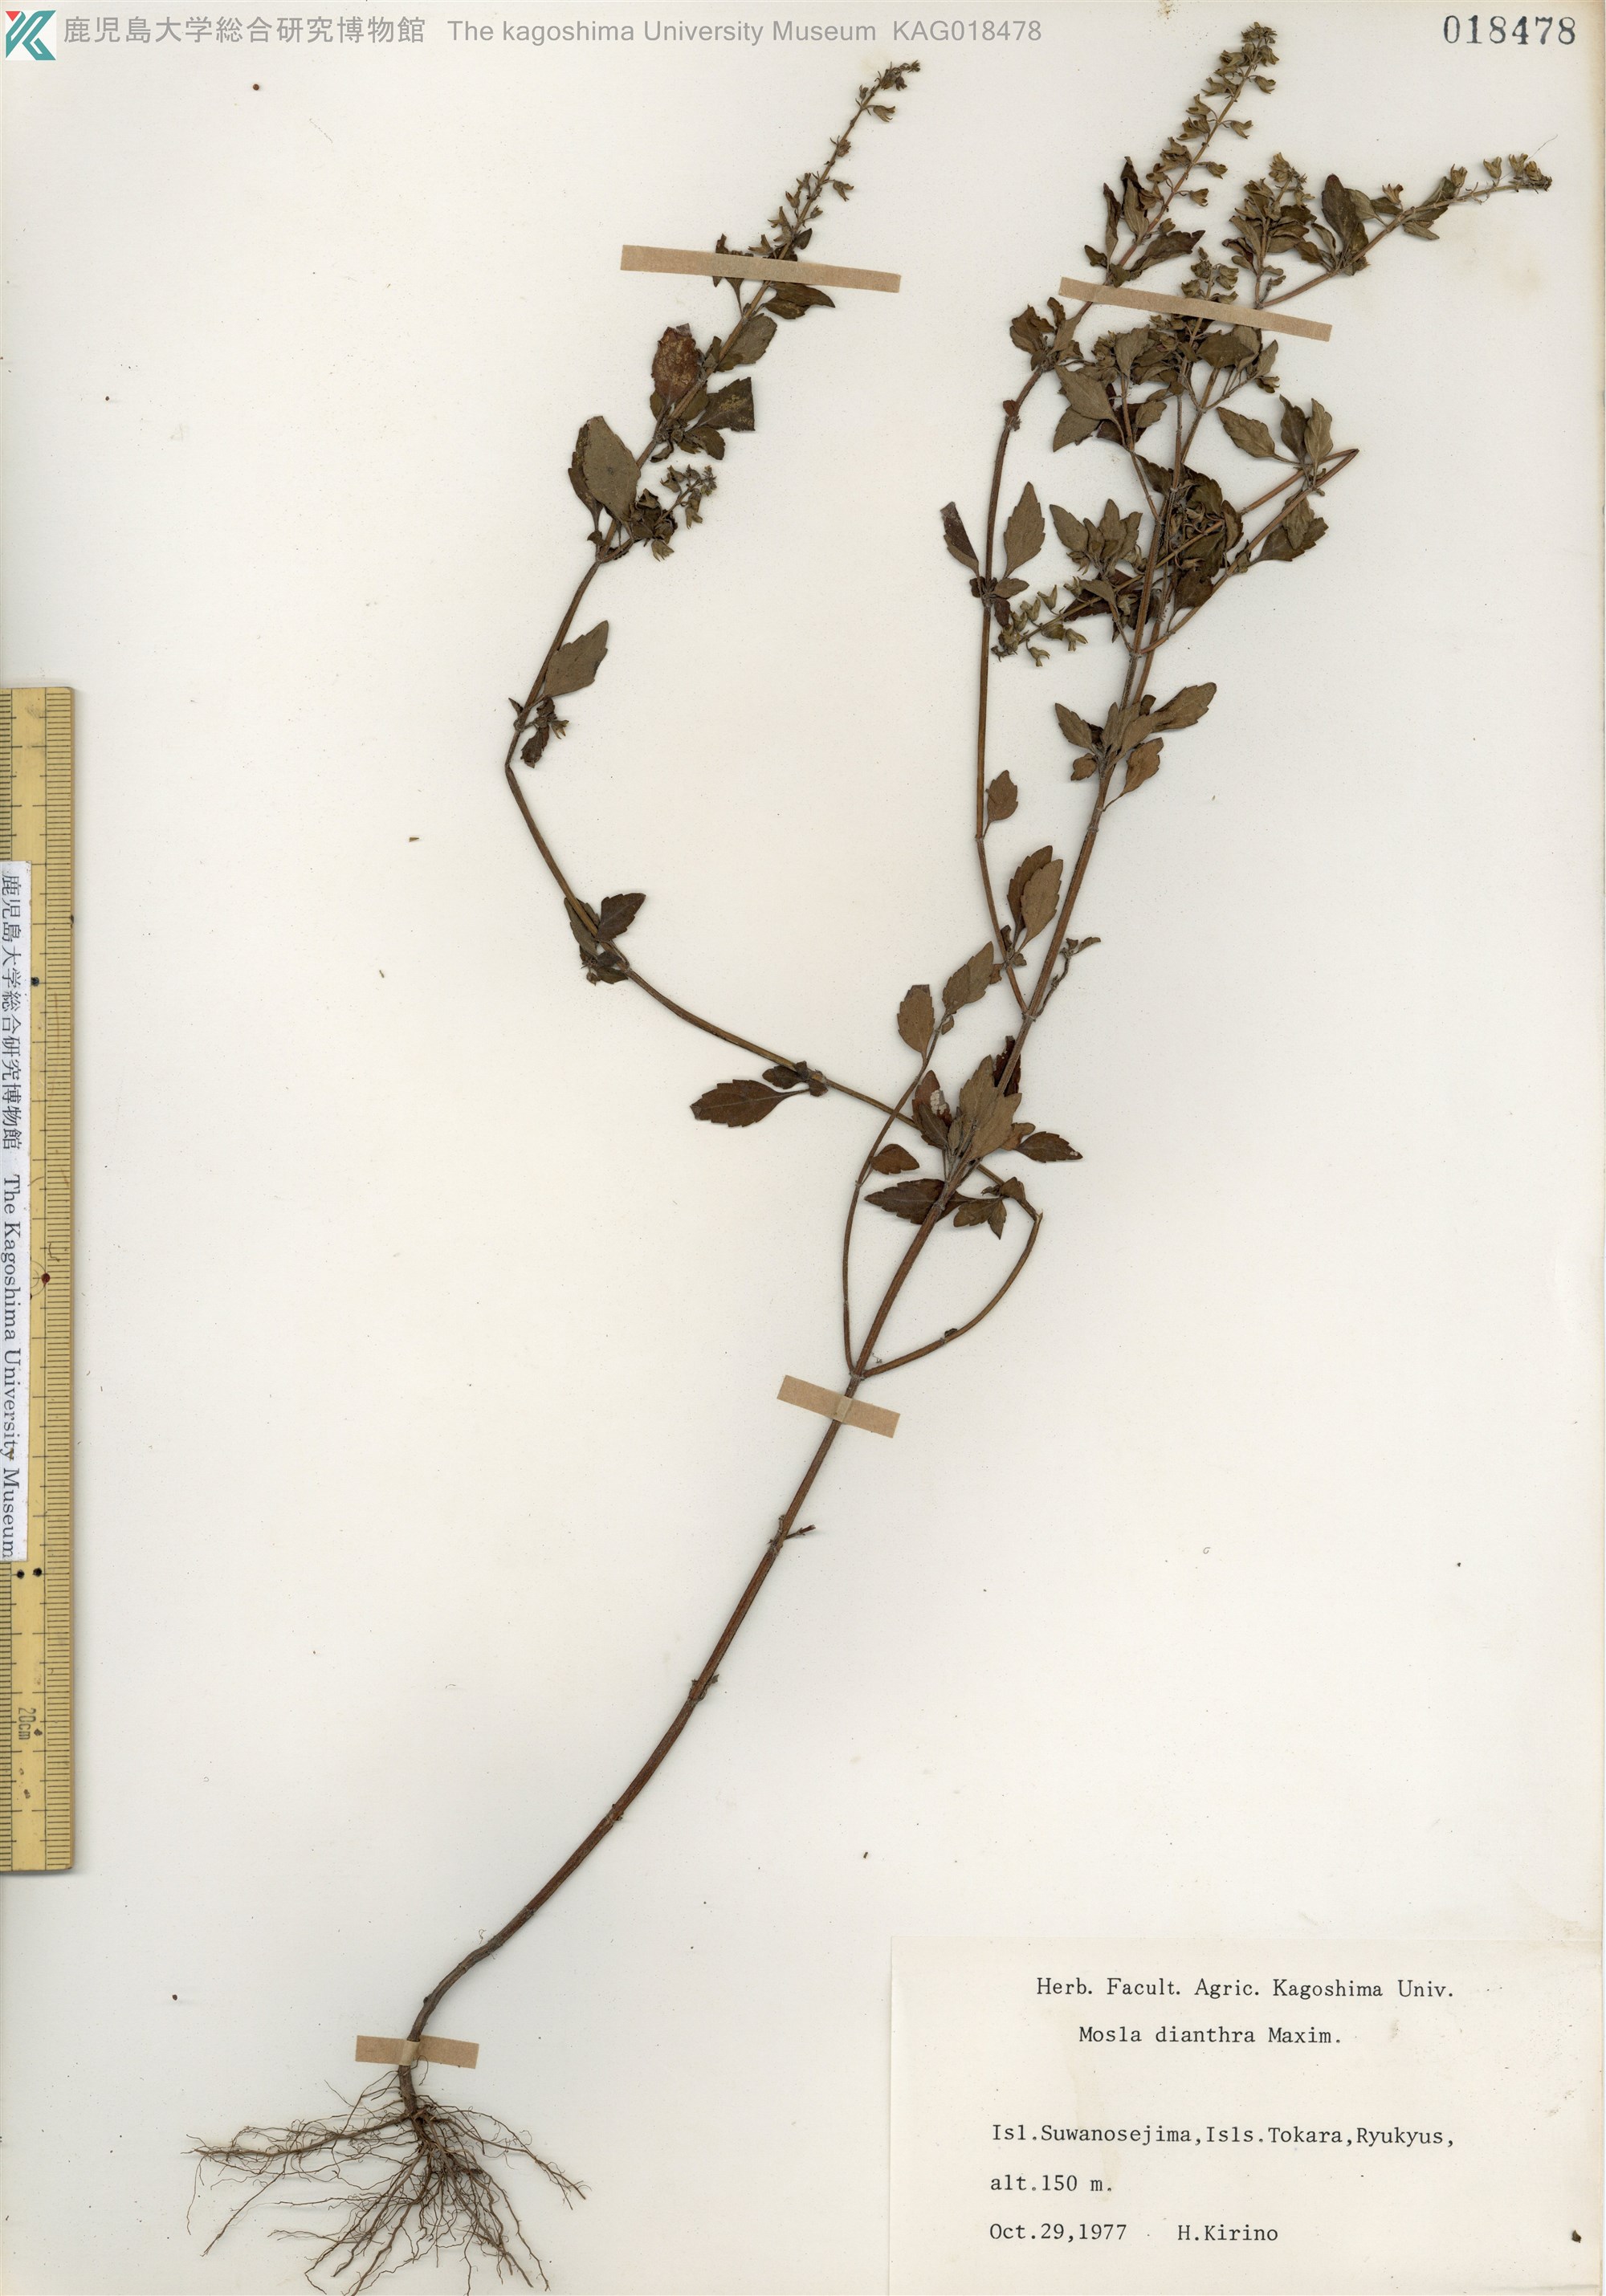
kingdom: Plantae
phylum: Tracheophyta
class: Magnoliopsida
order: Lamiales
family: Lamiaceae
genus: Mosla
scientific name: Mosla dianthera
